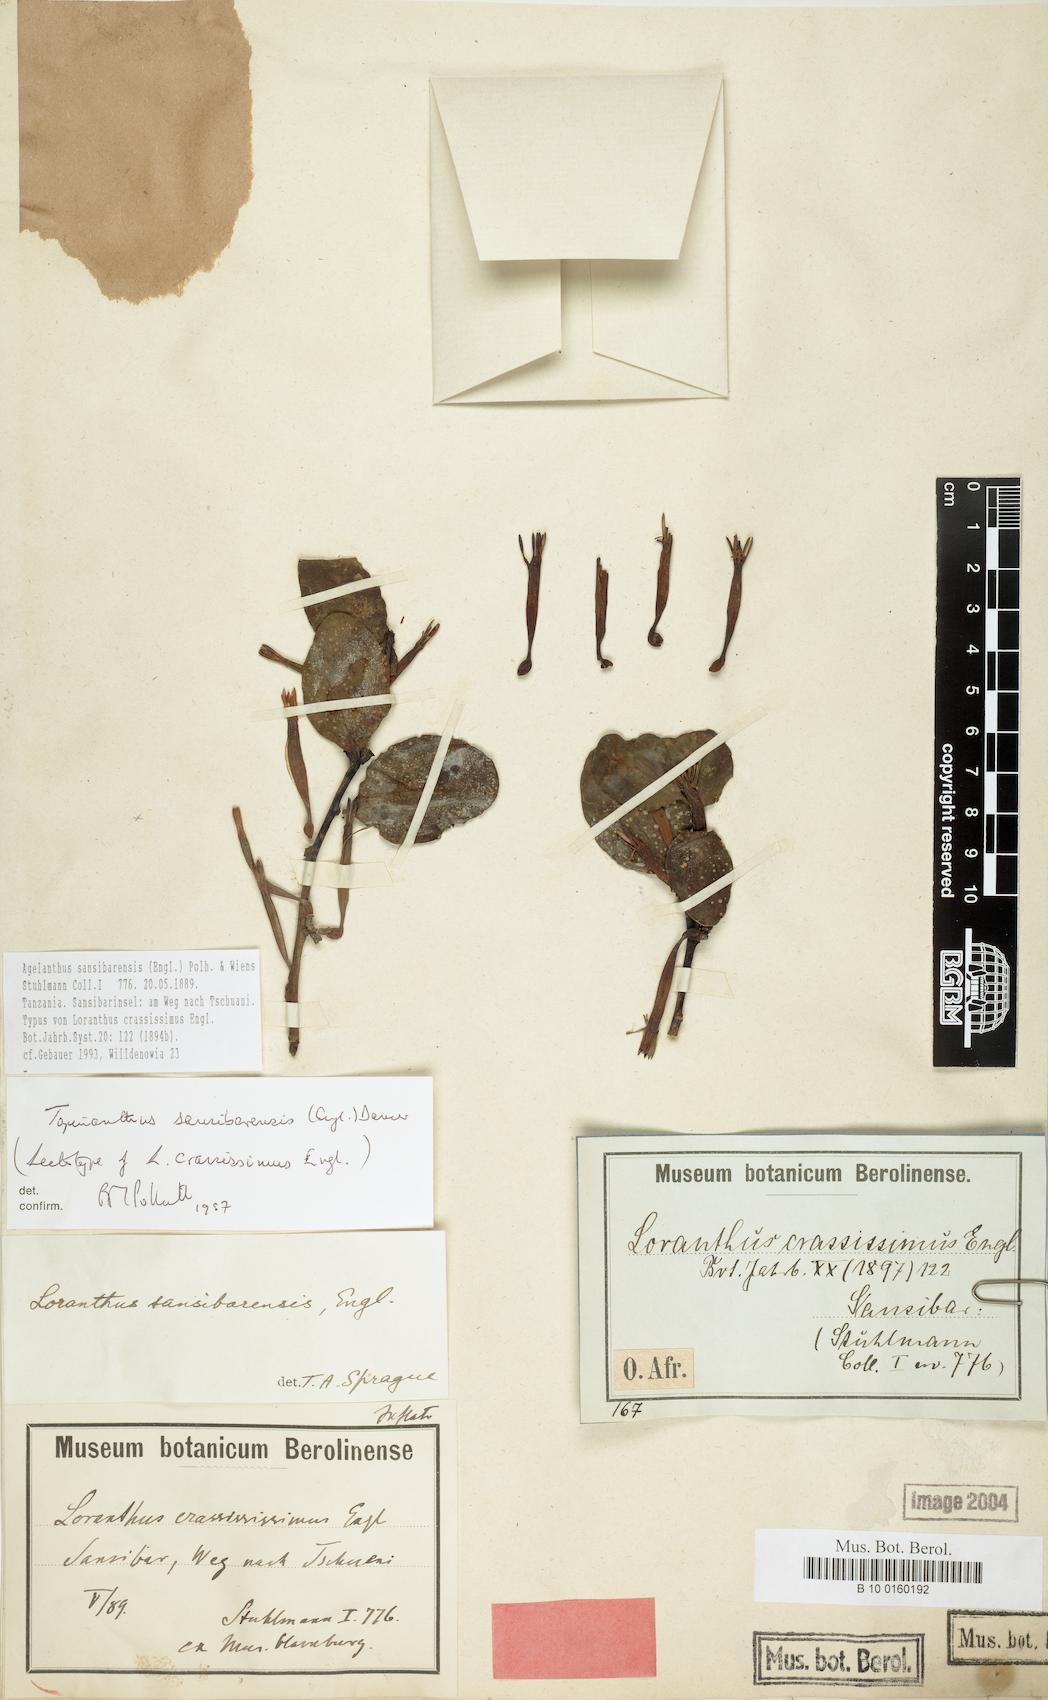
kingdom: Plantae
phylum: Tracheophyta
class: Magnoliopsida
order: Santalales
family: Loranthaceae
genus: Agelanthus
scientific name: Agelanthus sansibarensis
